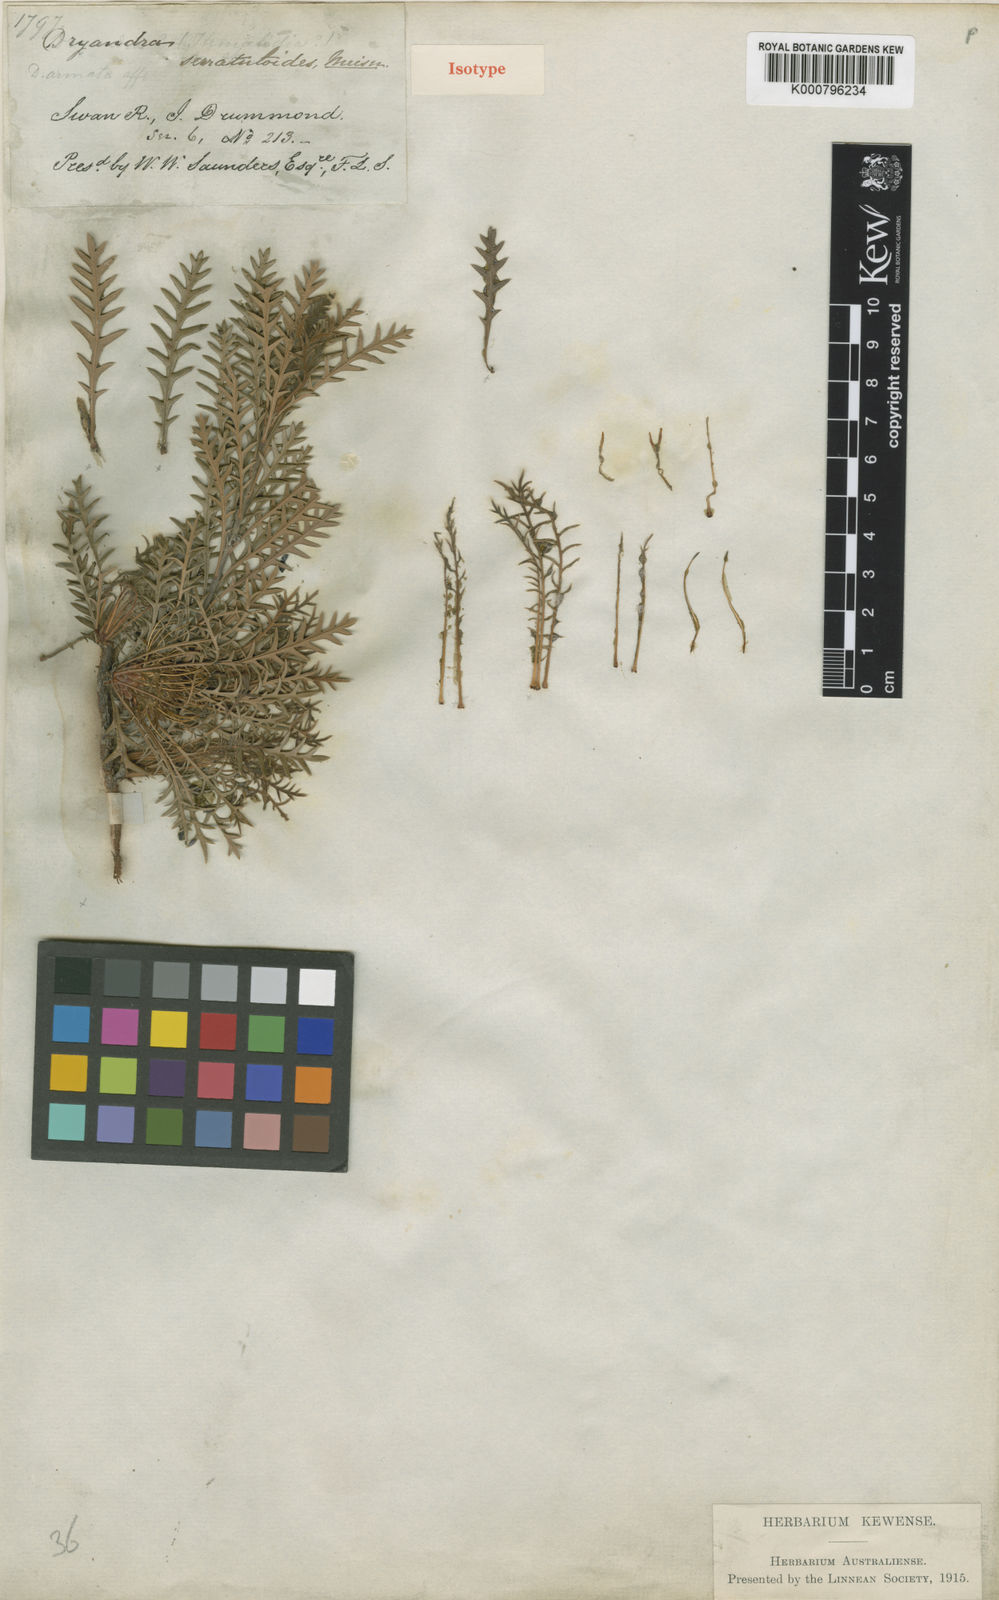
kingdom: Plantae
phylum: Tracheophyta
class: Magnoliopsida
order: Proteales
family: Proteaceae
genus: Banksia
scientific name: Banksia serratuloides
